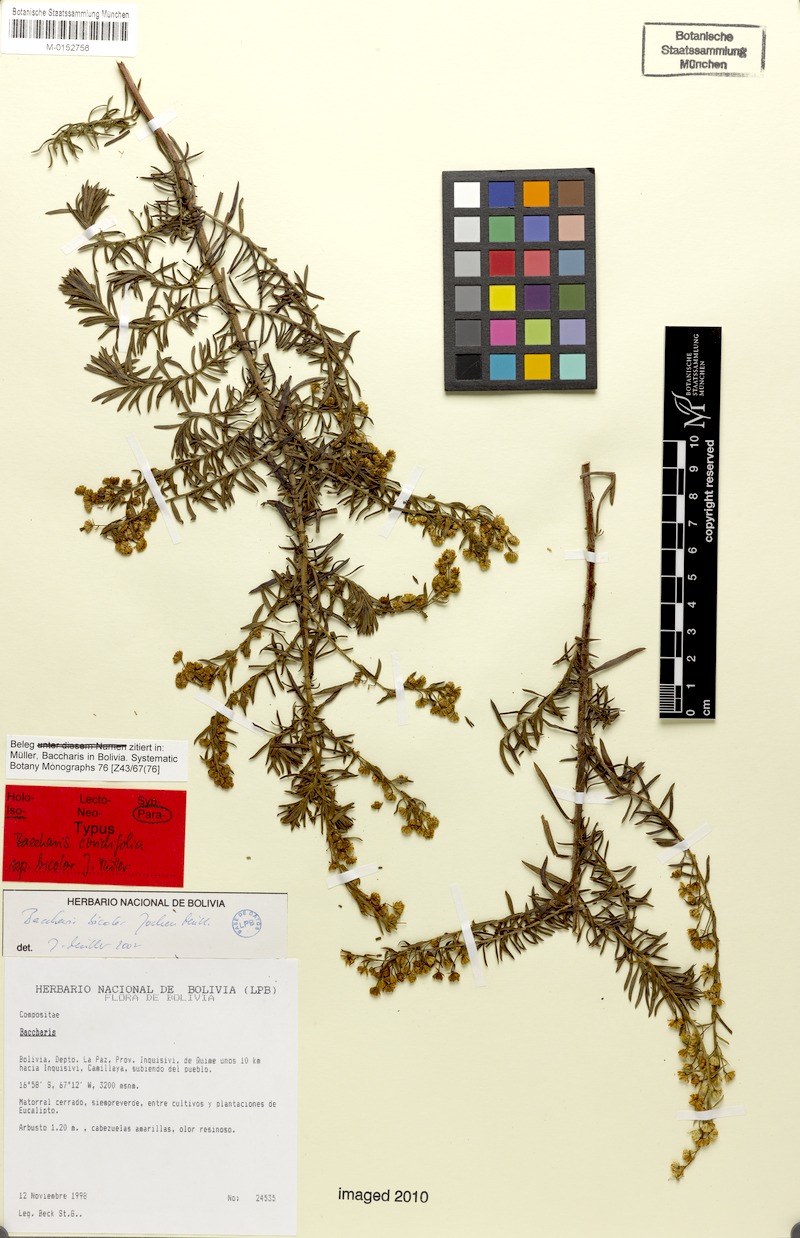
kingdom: Plantae
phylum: Tracheophyta
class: Magnoliopsida
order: Asterales
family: Asteraceae
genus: Baccharis
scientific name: Baccharis bicolor
